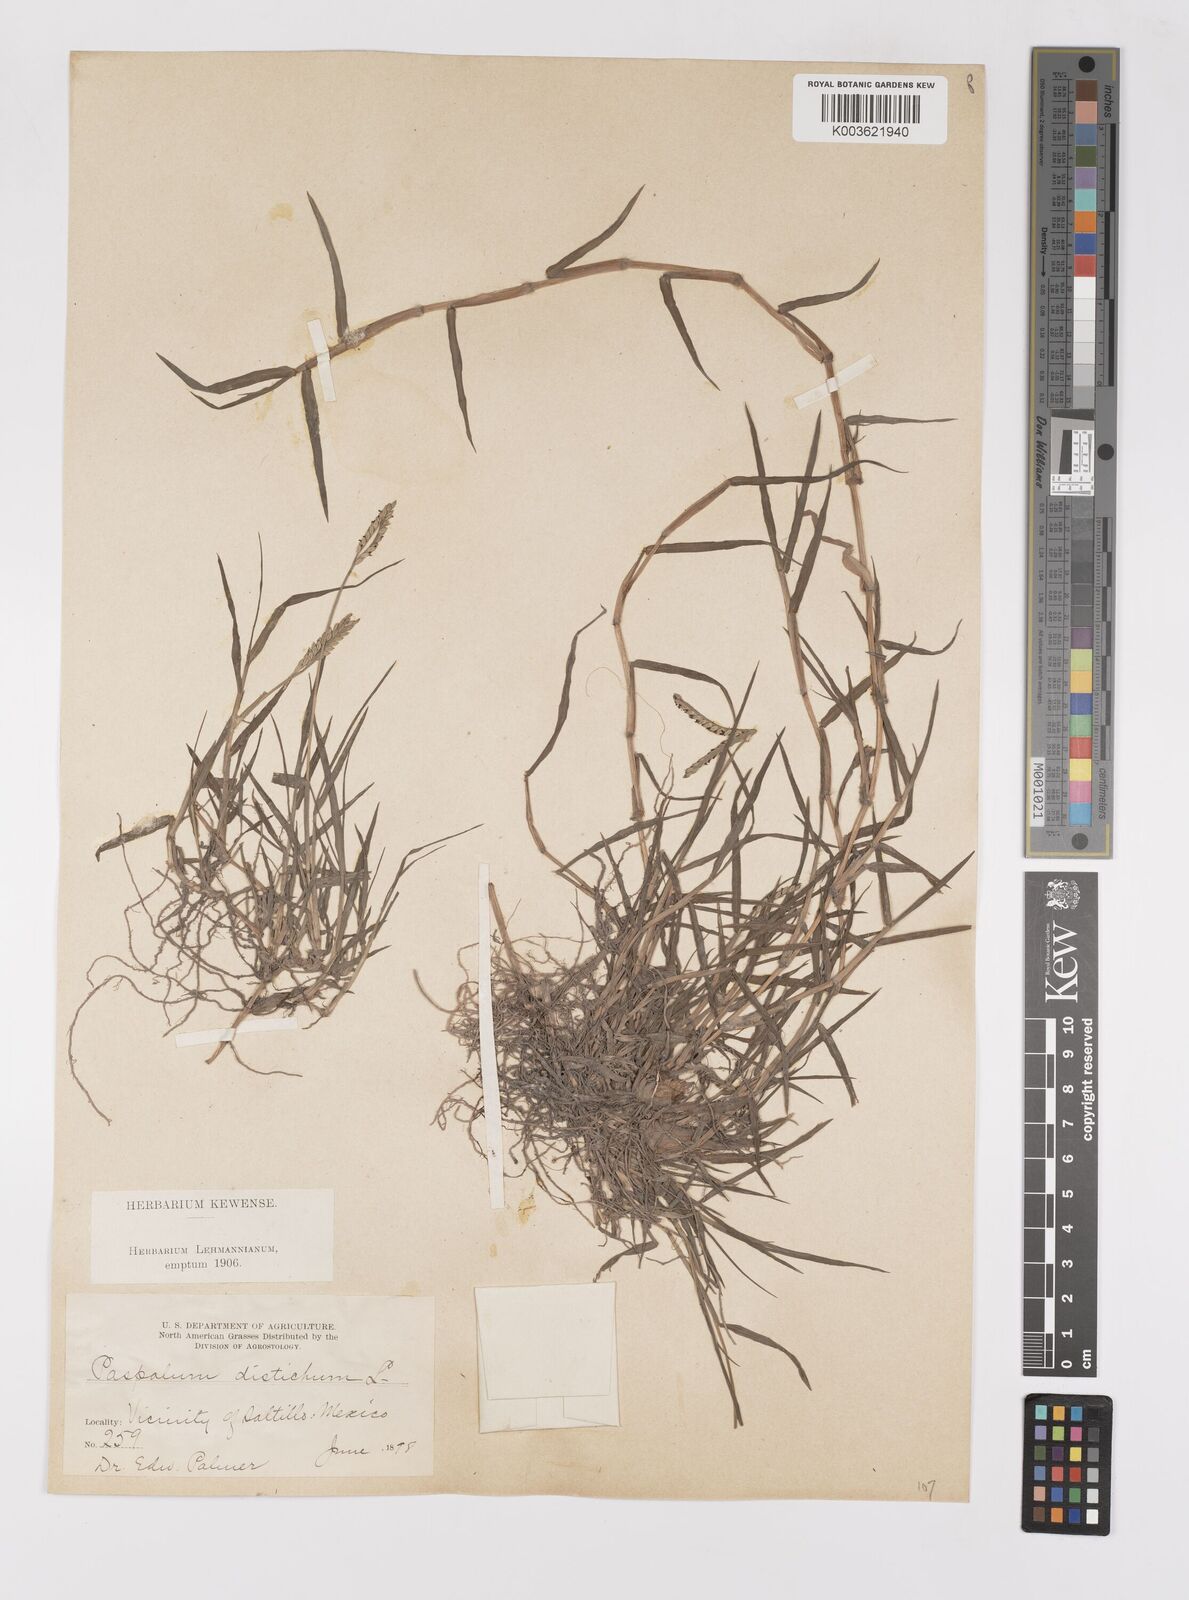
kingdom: Plantae
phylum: Tracheophyta
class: Liliopsida
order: Poales
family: Poaceae
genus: Paspalum
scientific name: Paspalum distichum
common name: Knotgrass
